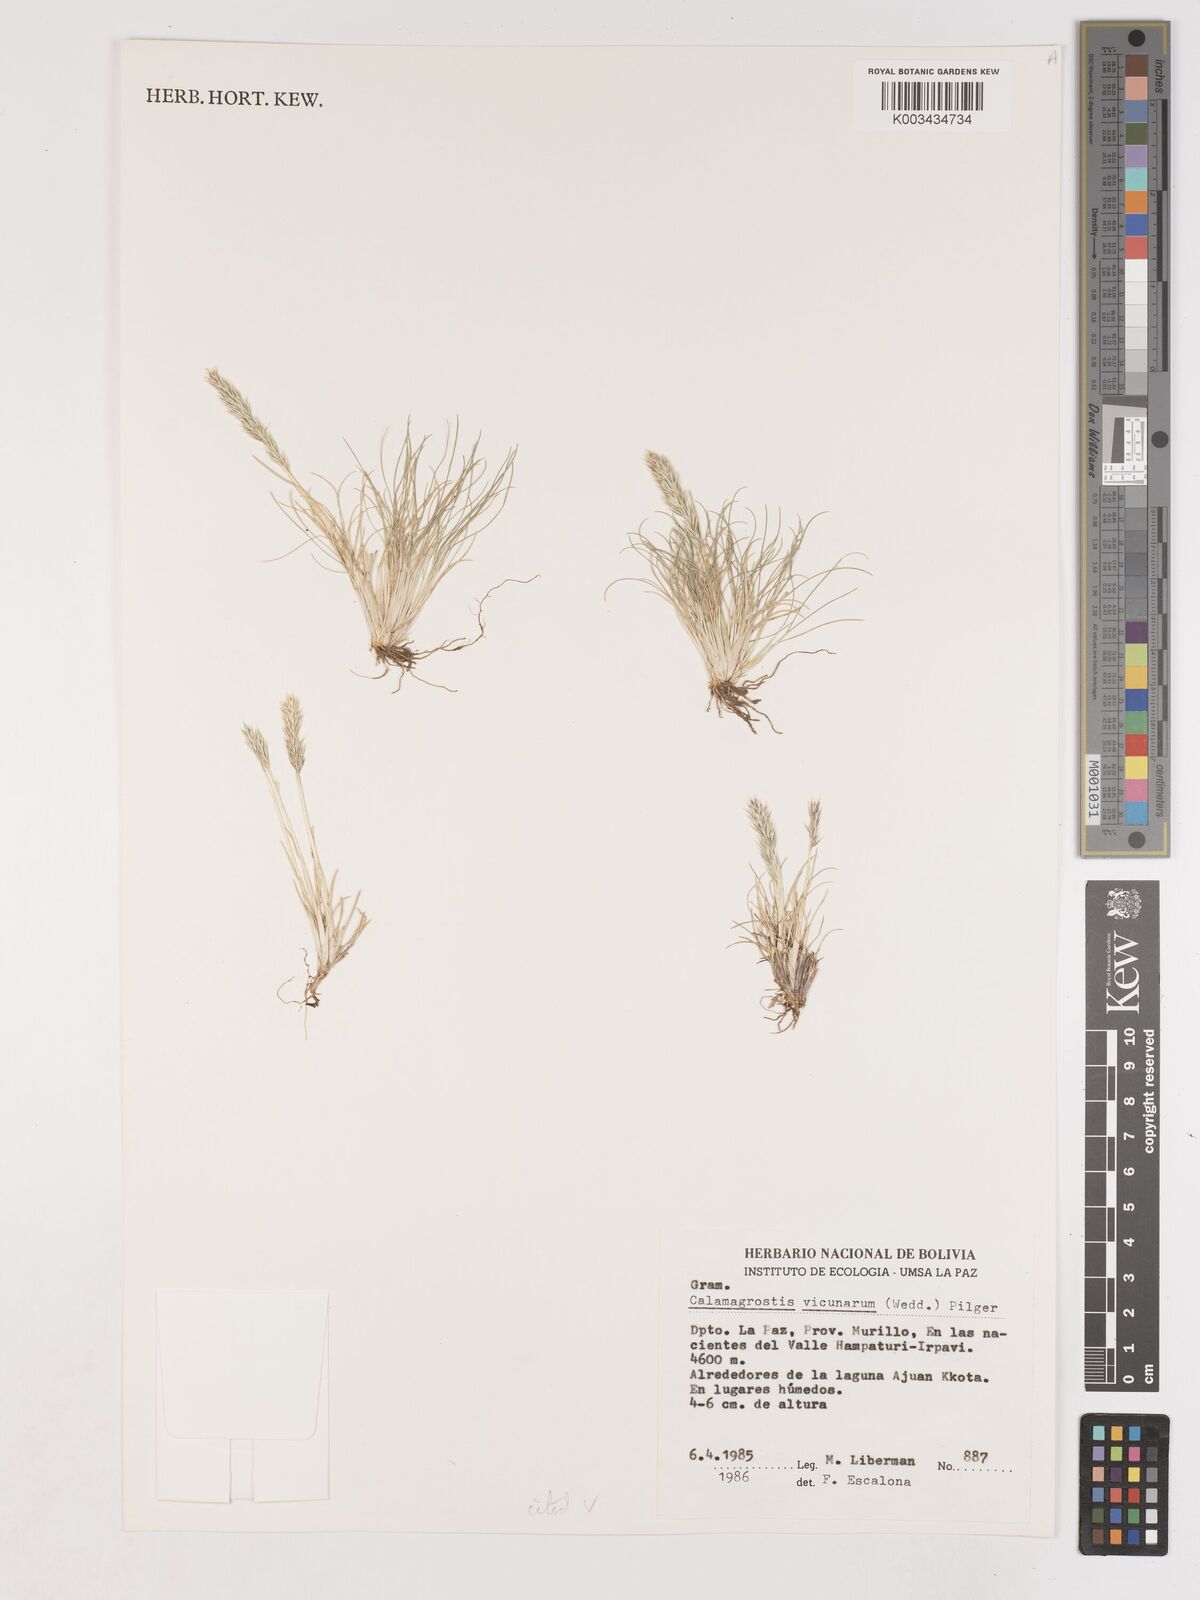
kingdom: Plantae
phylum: Tracheophyta
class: Liliopsida
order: Poales
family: Poaceae
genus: Cinnagrostis
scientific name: Cinnagrostis vicunarum
